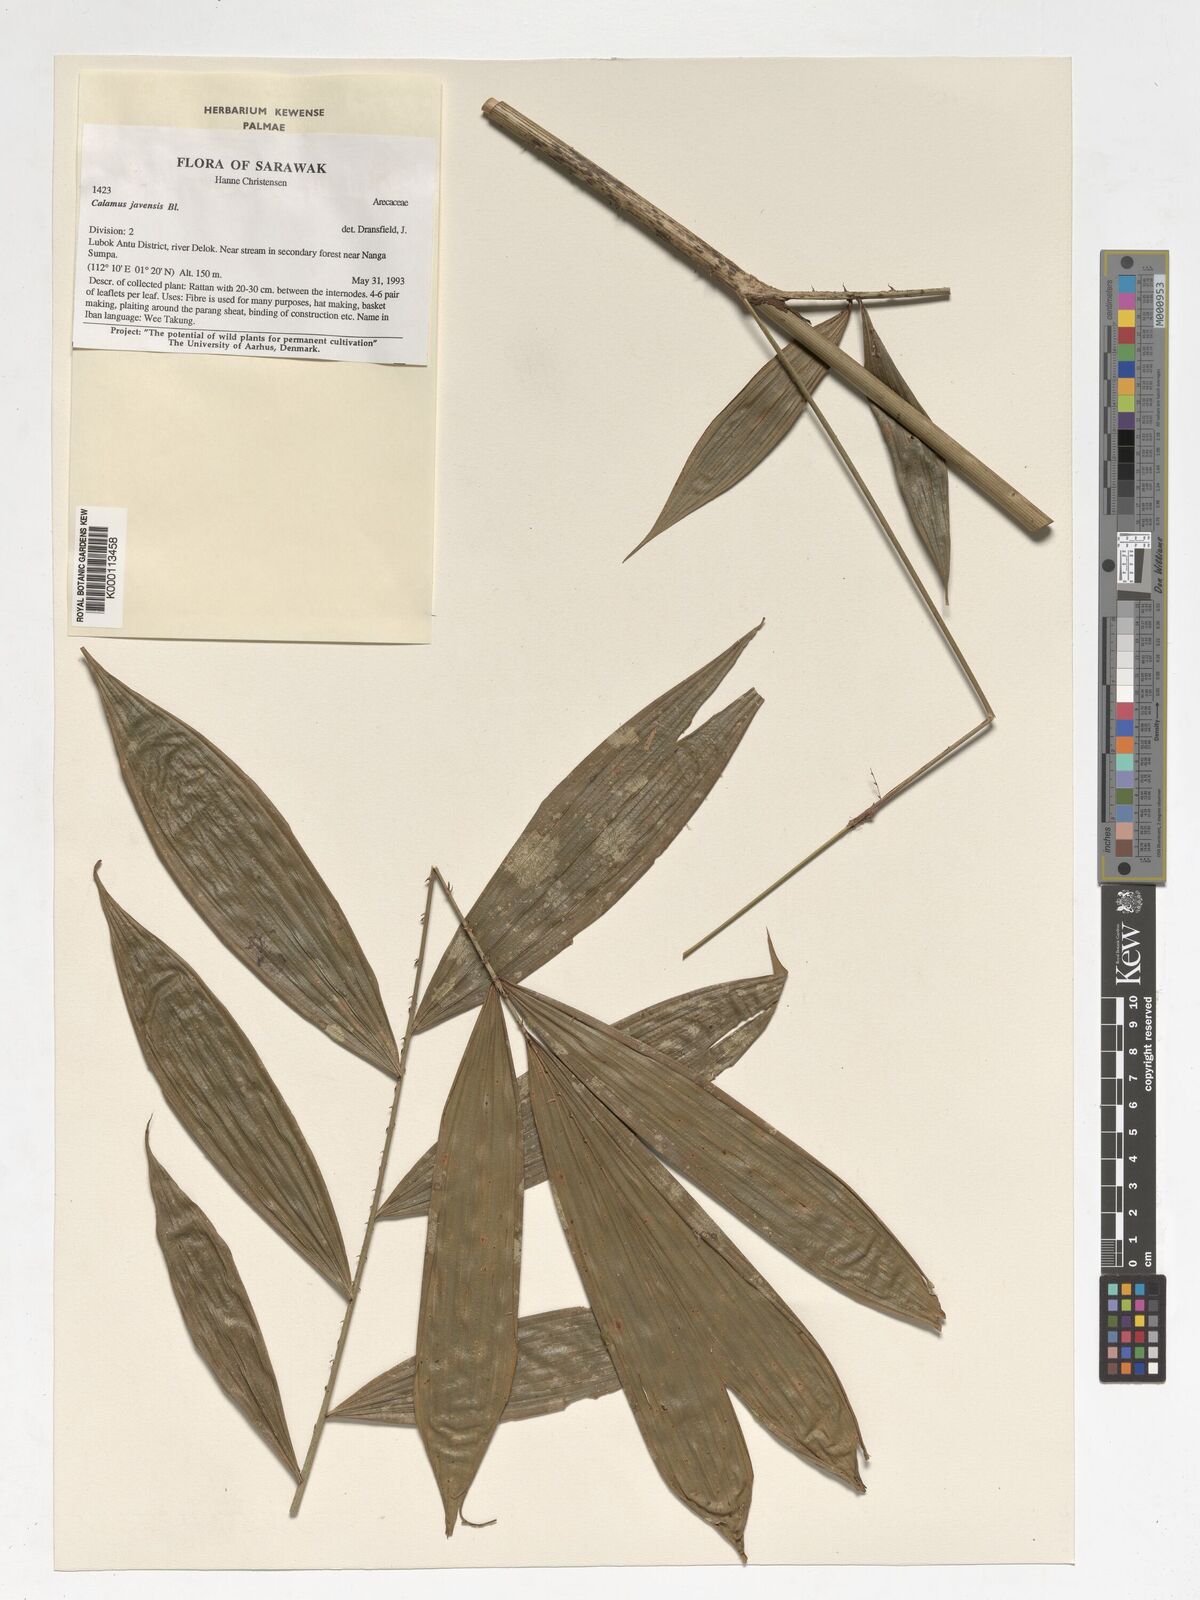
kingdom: Plantae
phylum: Tracheophyta
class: Liliopsida
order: Arecales
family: Arecaceae
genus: Calamus
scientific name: Calamus javensis
